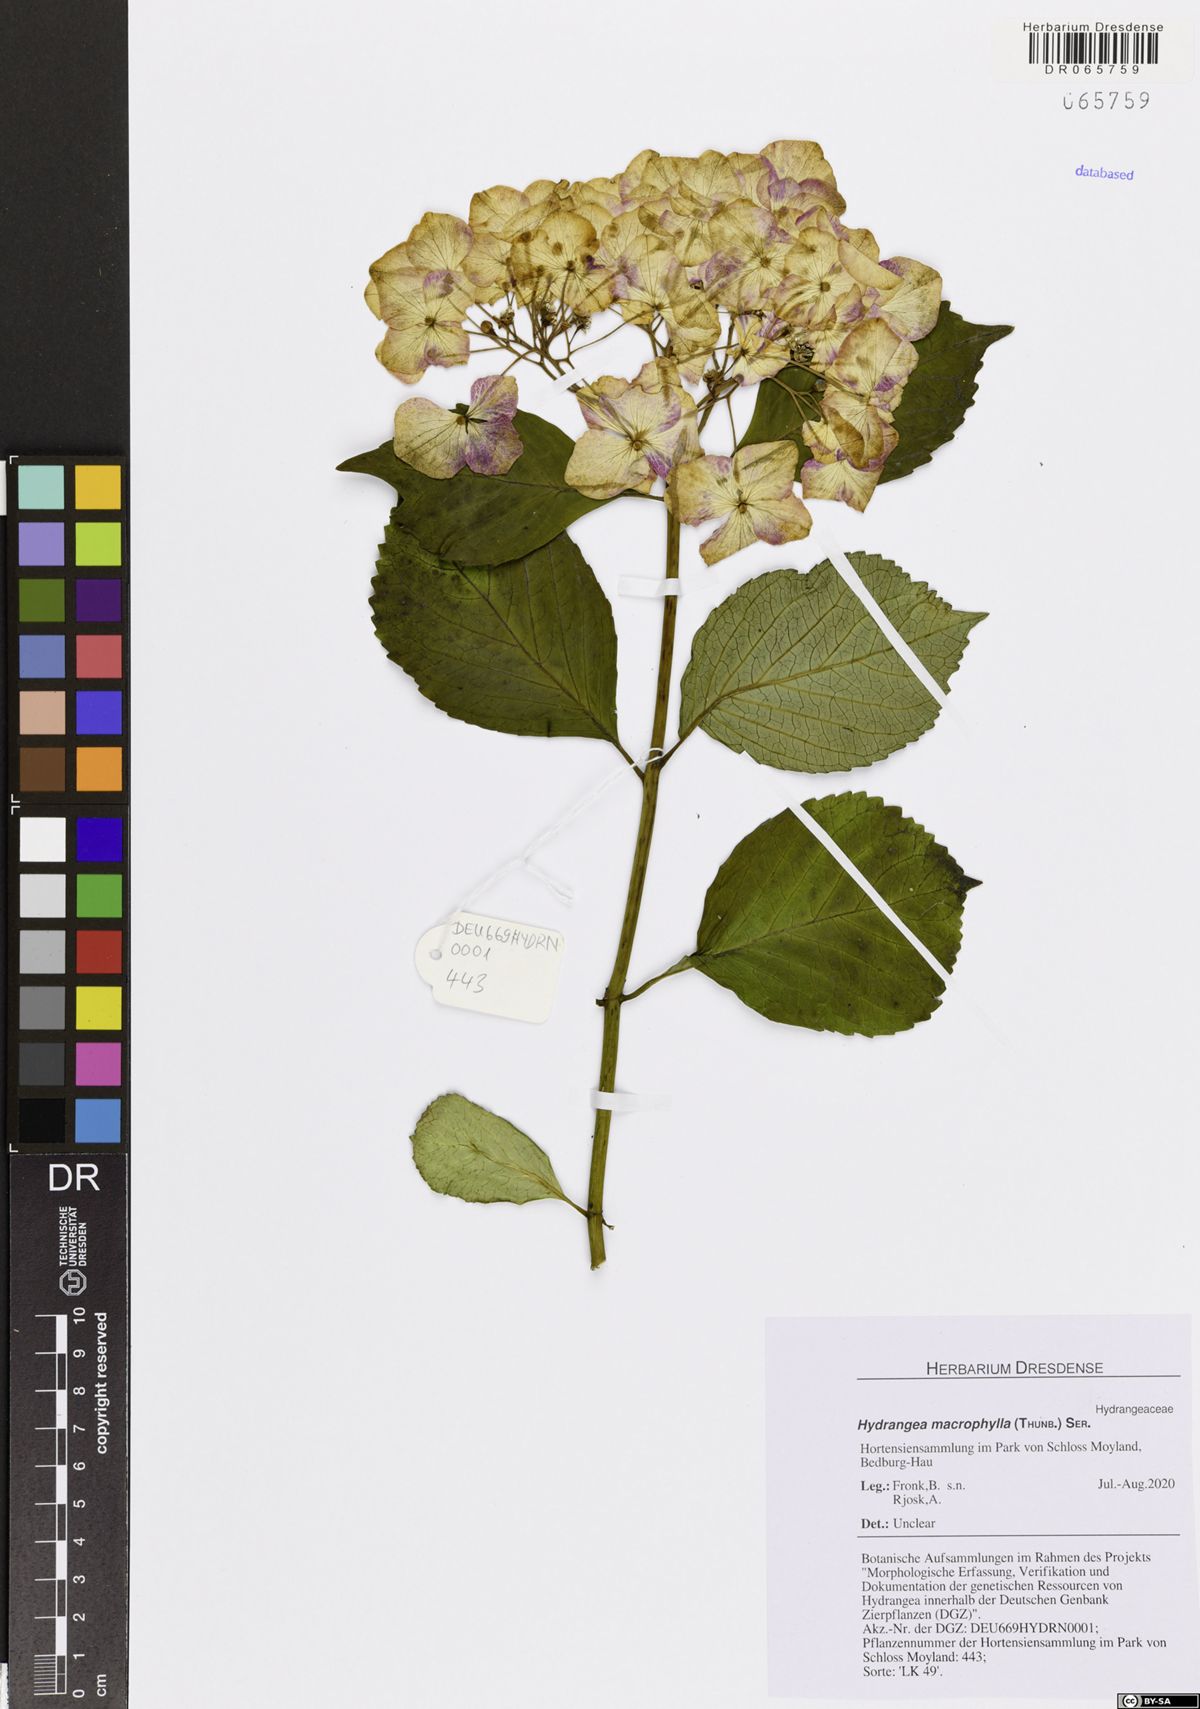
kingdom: Plantae
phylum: Tracheophyta
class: Magnoliopsida
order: Cornales
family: Hydrangeaceae
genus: Hydrangea
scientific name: Hydrangea macrophylla
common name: Hydrangea
